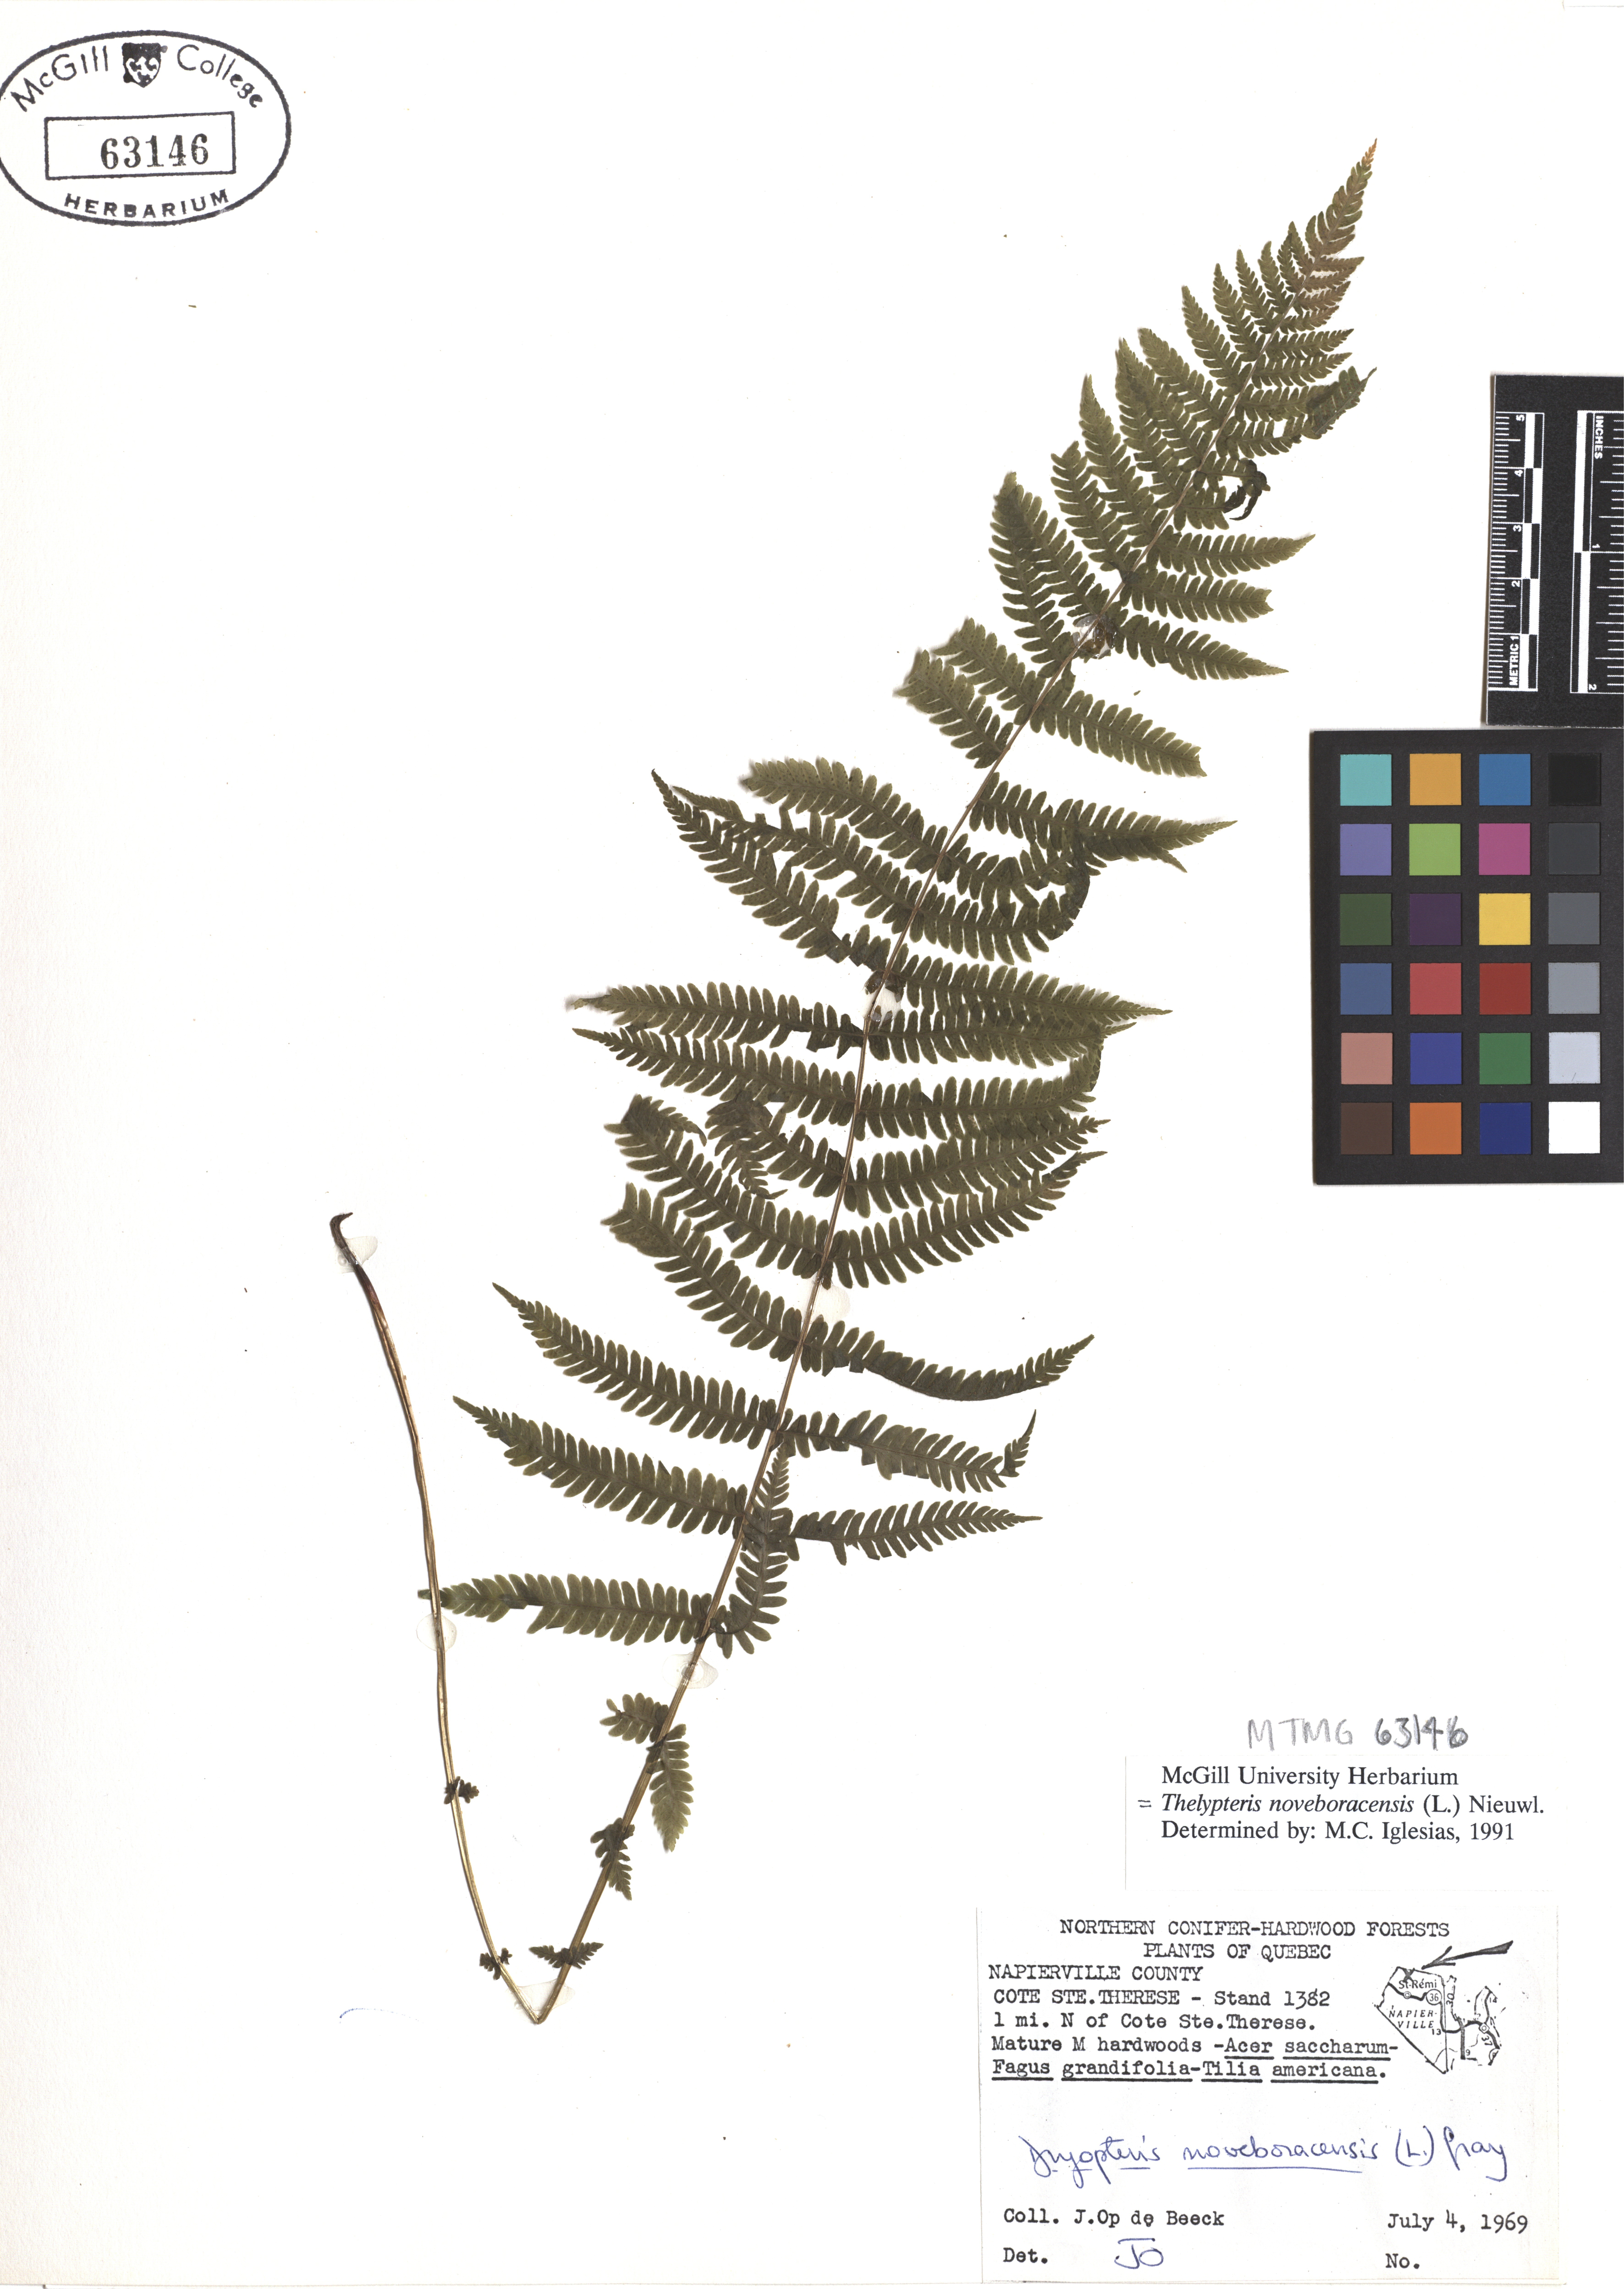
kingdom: Plantae
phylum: Tracheophyta
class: Polypodiopsida
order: Polypodiales
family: Thelypteridaceae
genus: Amauropelta
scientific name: Amauropelta noveboracensis
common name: New york fern
